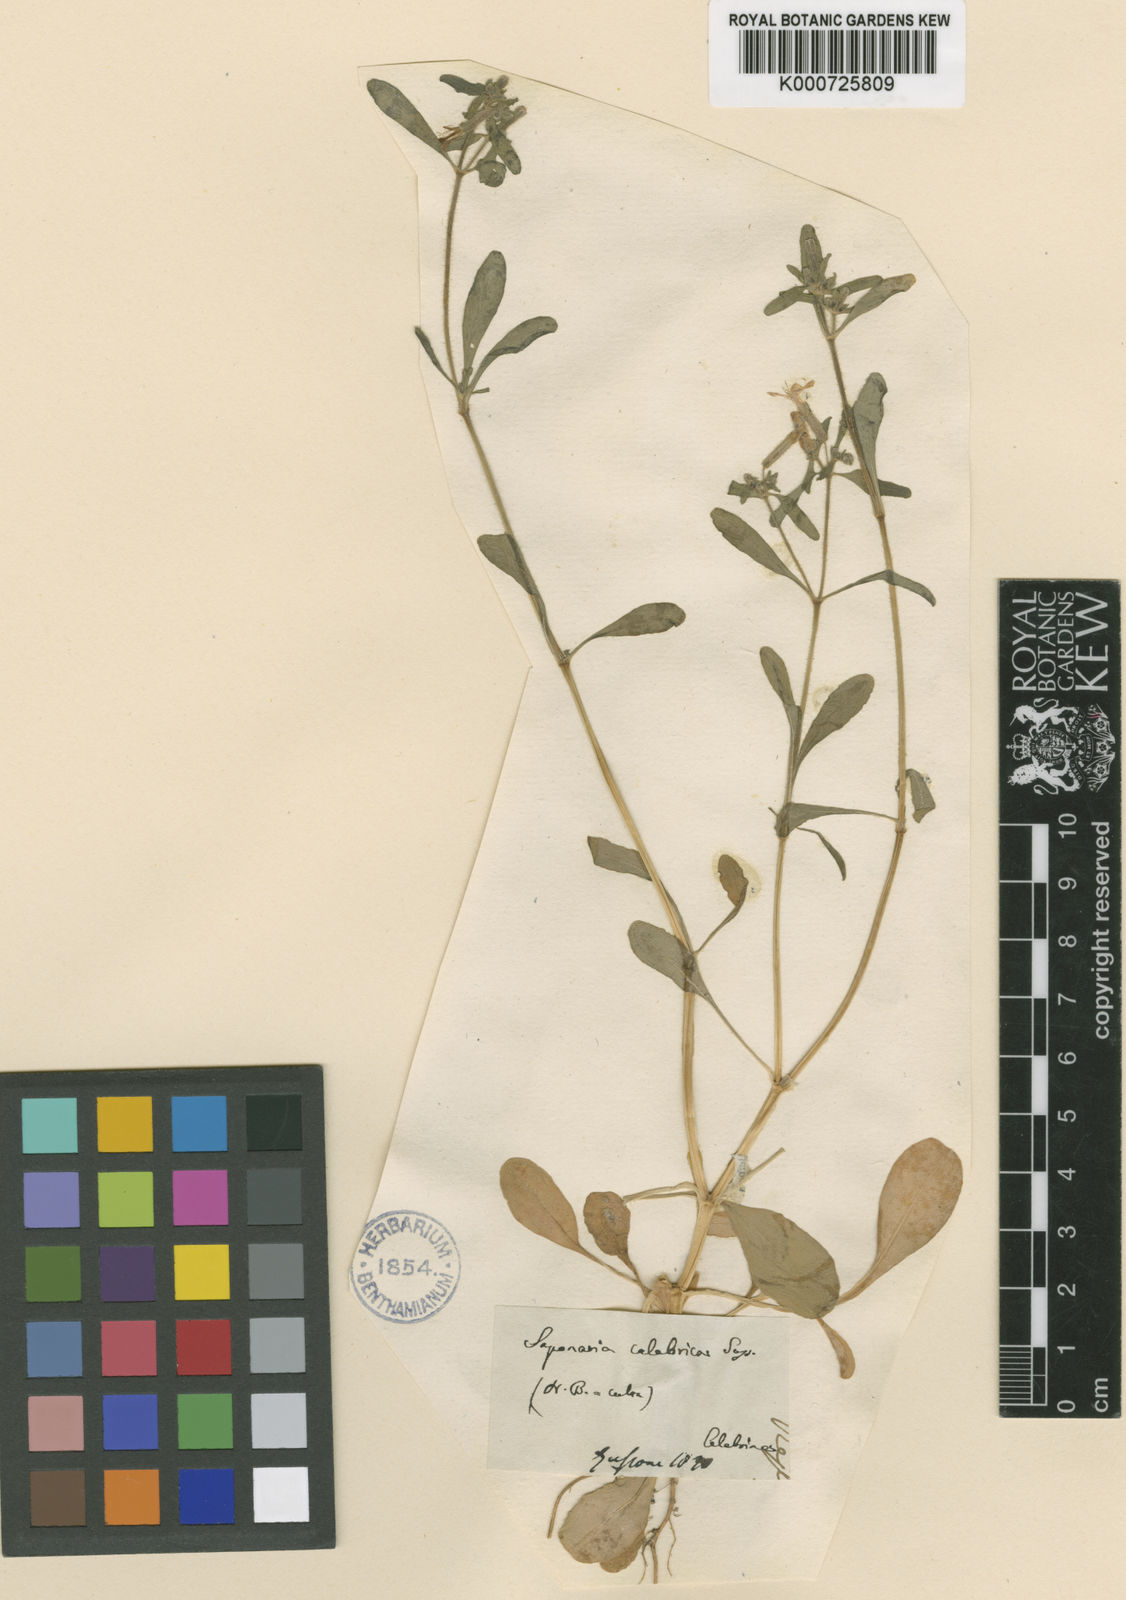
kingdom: Plantae
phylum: Tracheophyta
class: Magnoliopsida
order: Caryophyllales
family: Caryophyllaceae
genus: Saponaria
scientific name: Saponaria calabrica
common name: Adriatic soapwort
